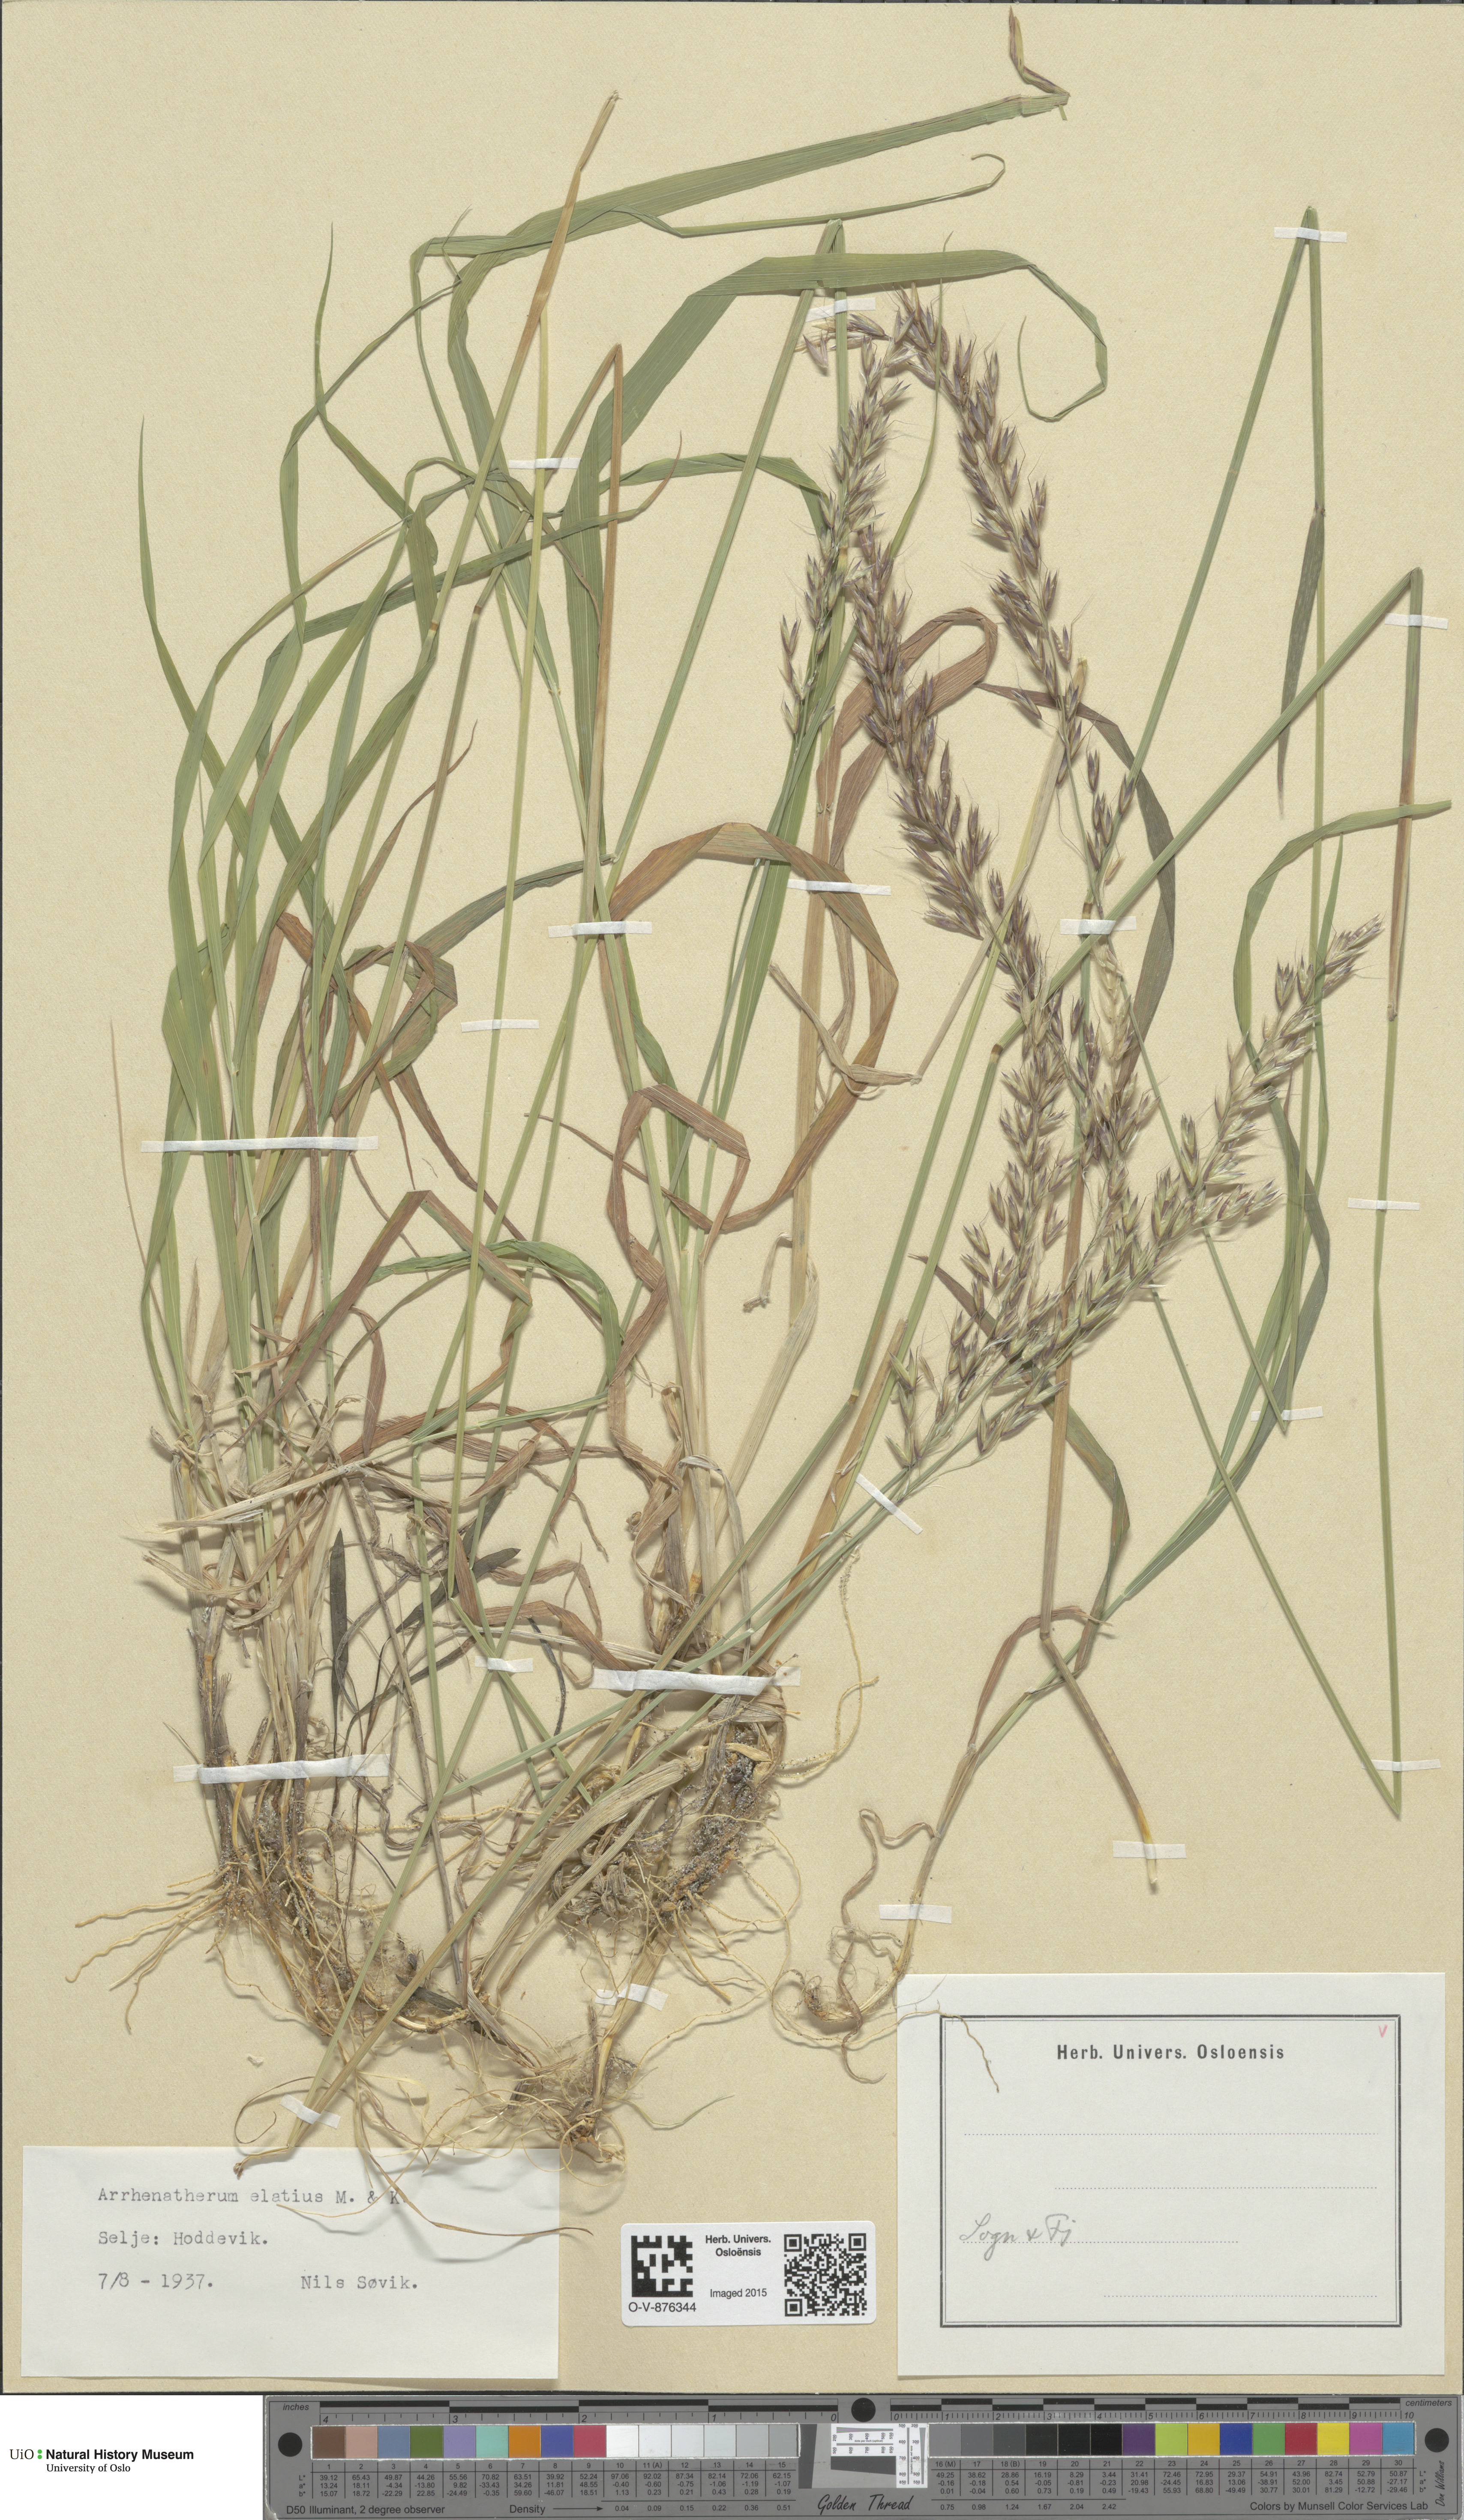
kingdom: Plantae
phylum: Tracheophyta
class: Liliopsida
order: Poales
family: Poaceae
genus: Arrhenatherum
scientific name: Arrhenatherum elatius
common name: Tall oatgrass
